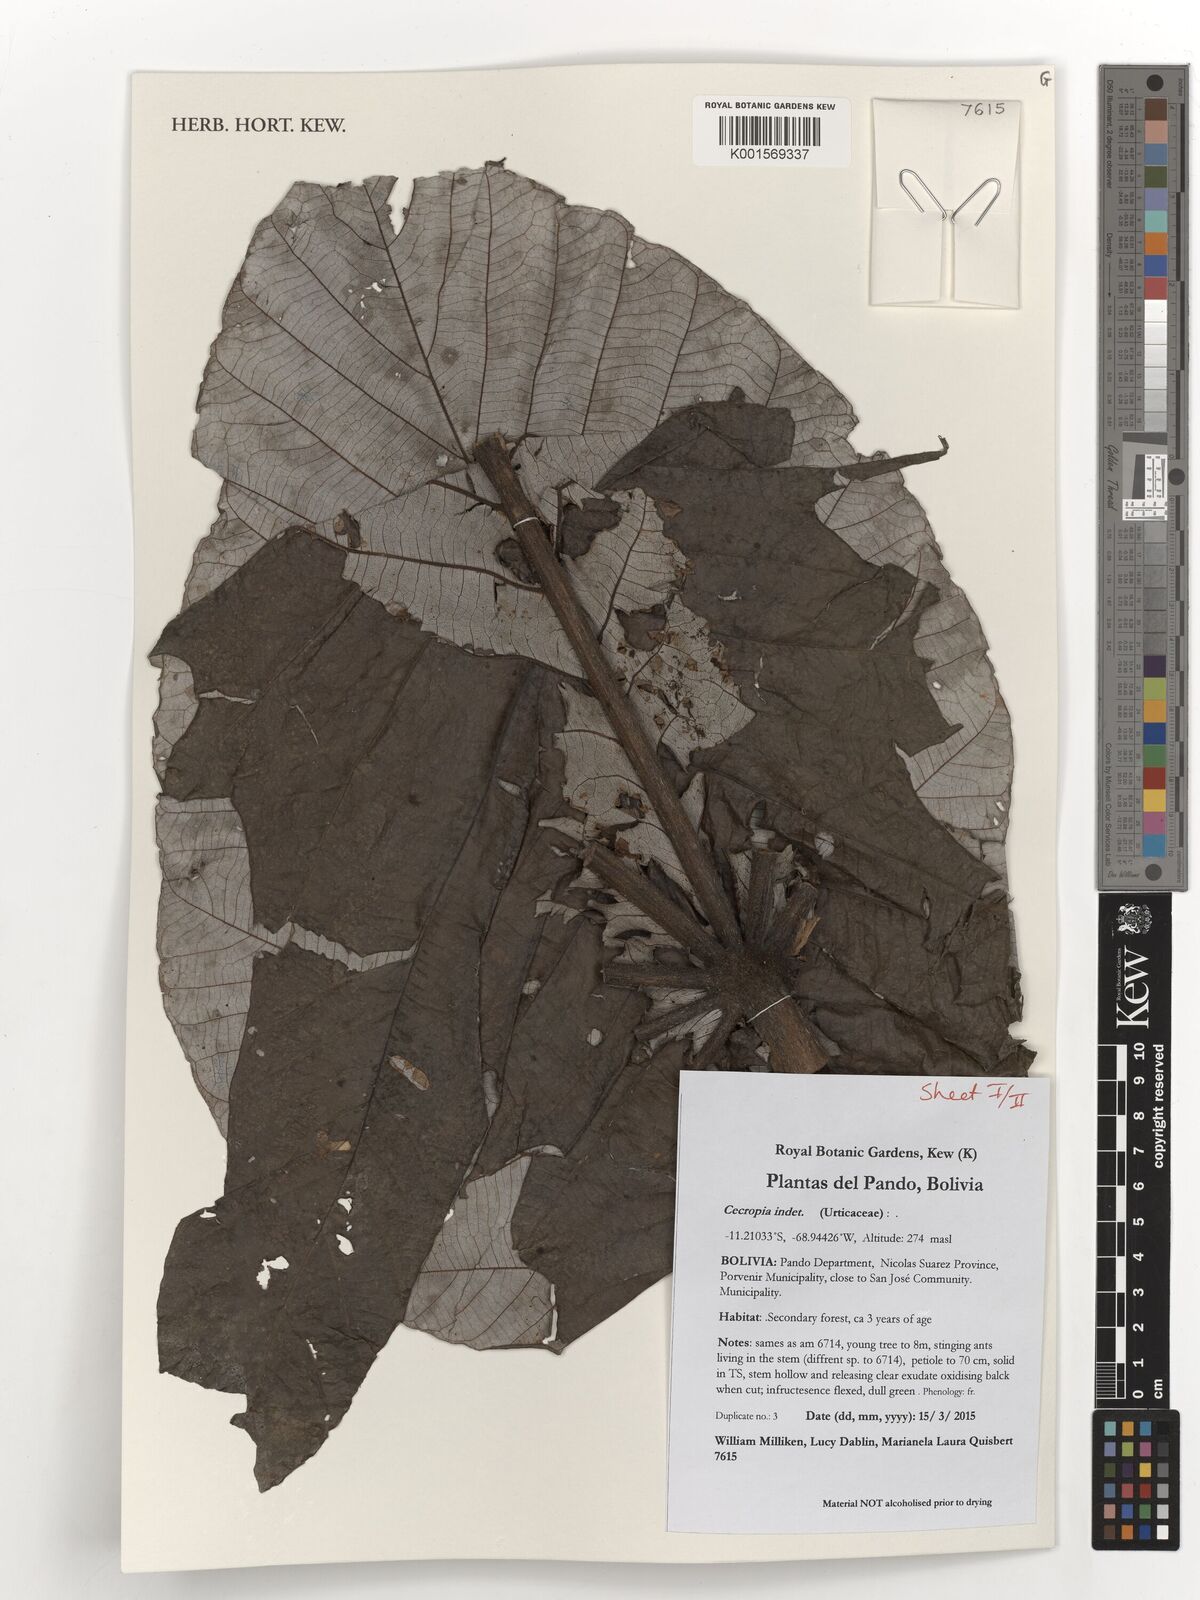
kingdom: Plantae
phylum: Tracheophyta
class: Magnoliopsida
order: Rosales
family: Urticaceae
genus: Cecropia
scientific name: Cecropia
